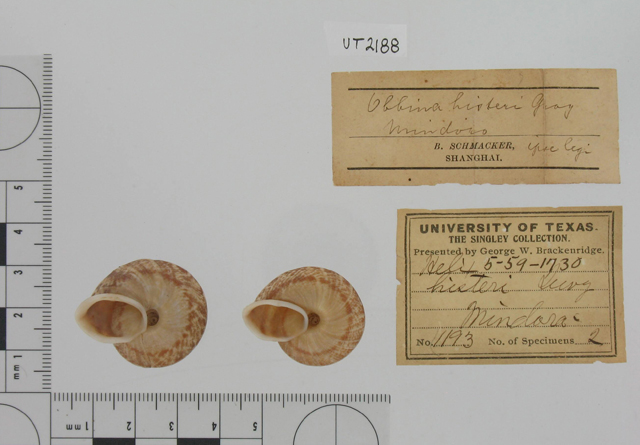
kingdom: Animalia
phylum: Mollusca
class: Gastropoda
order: Stylommatophora
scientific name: Stylommatophora
